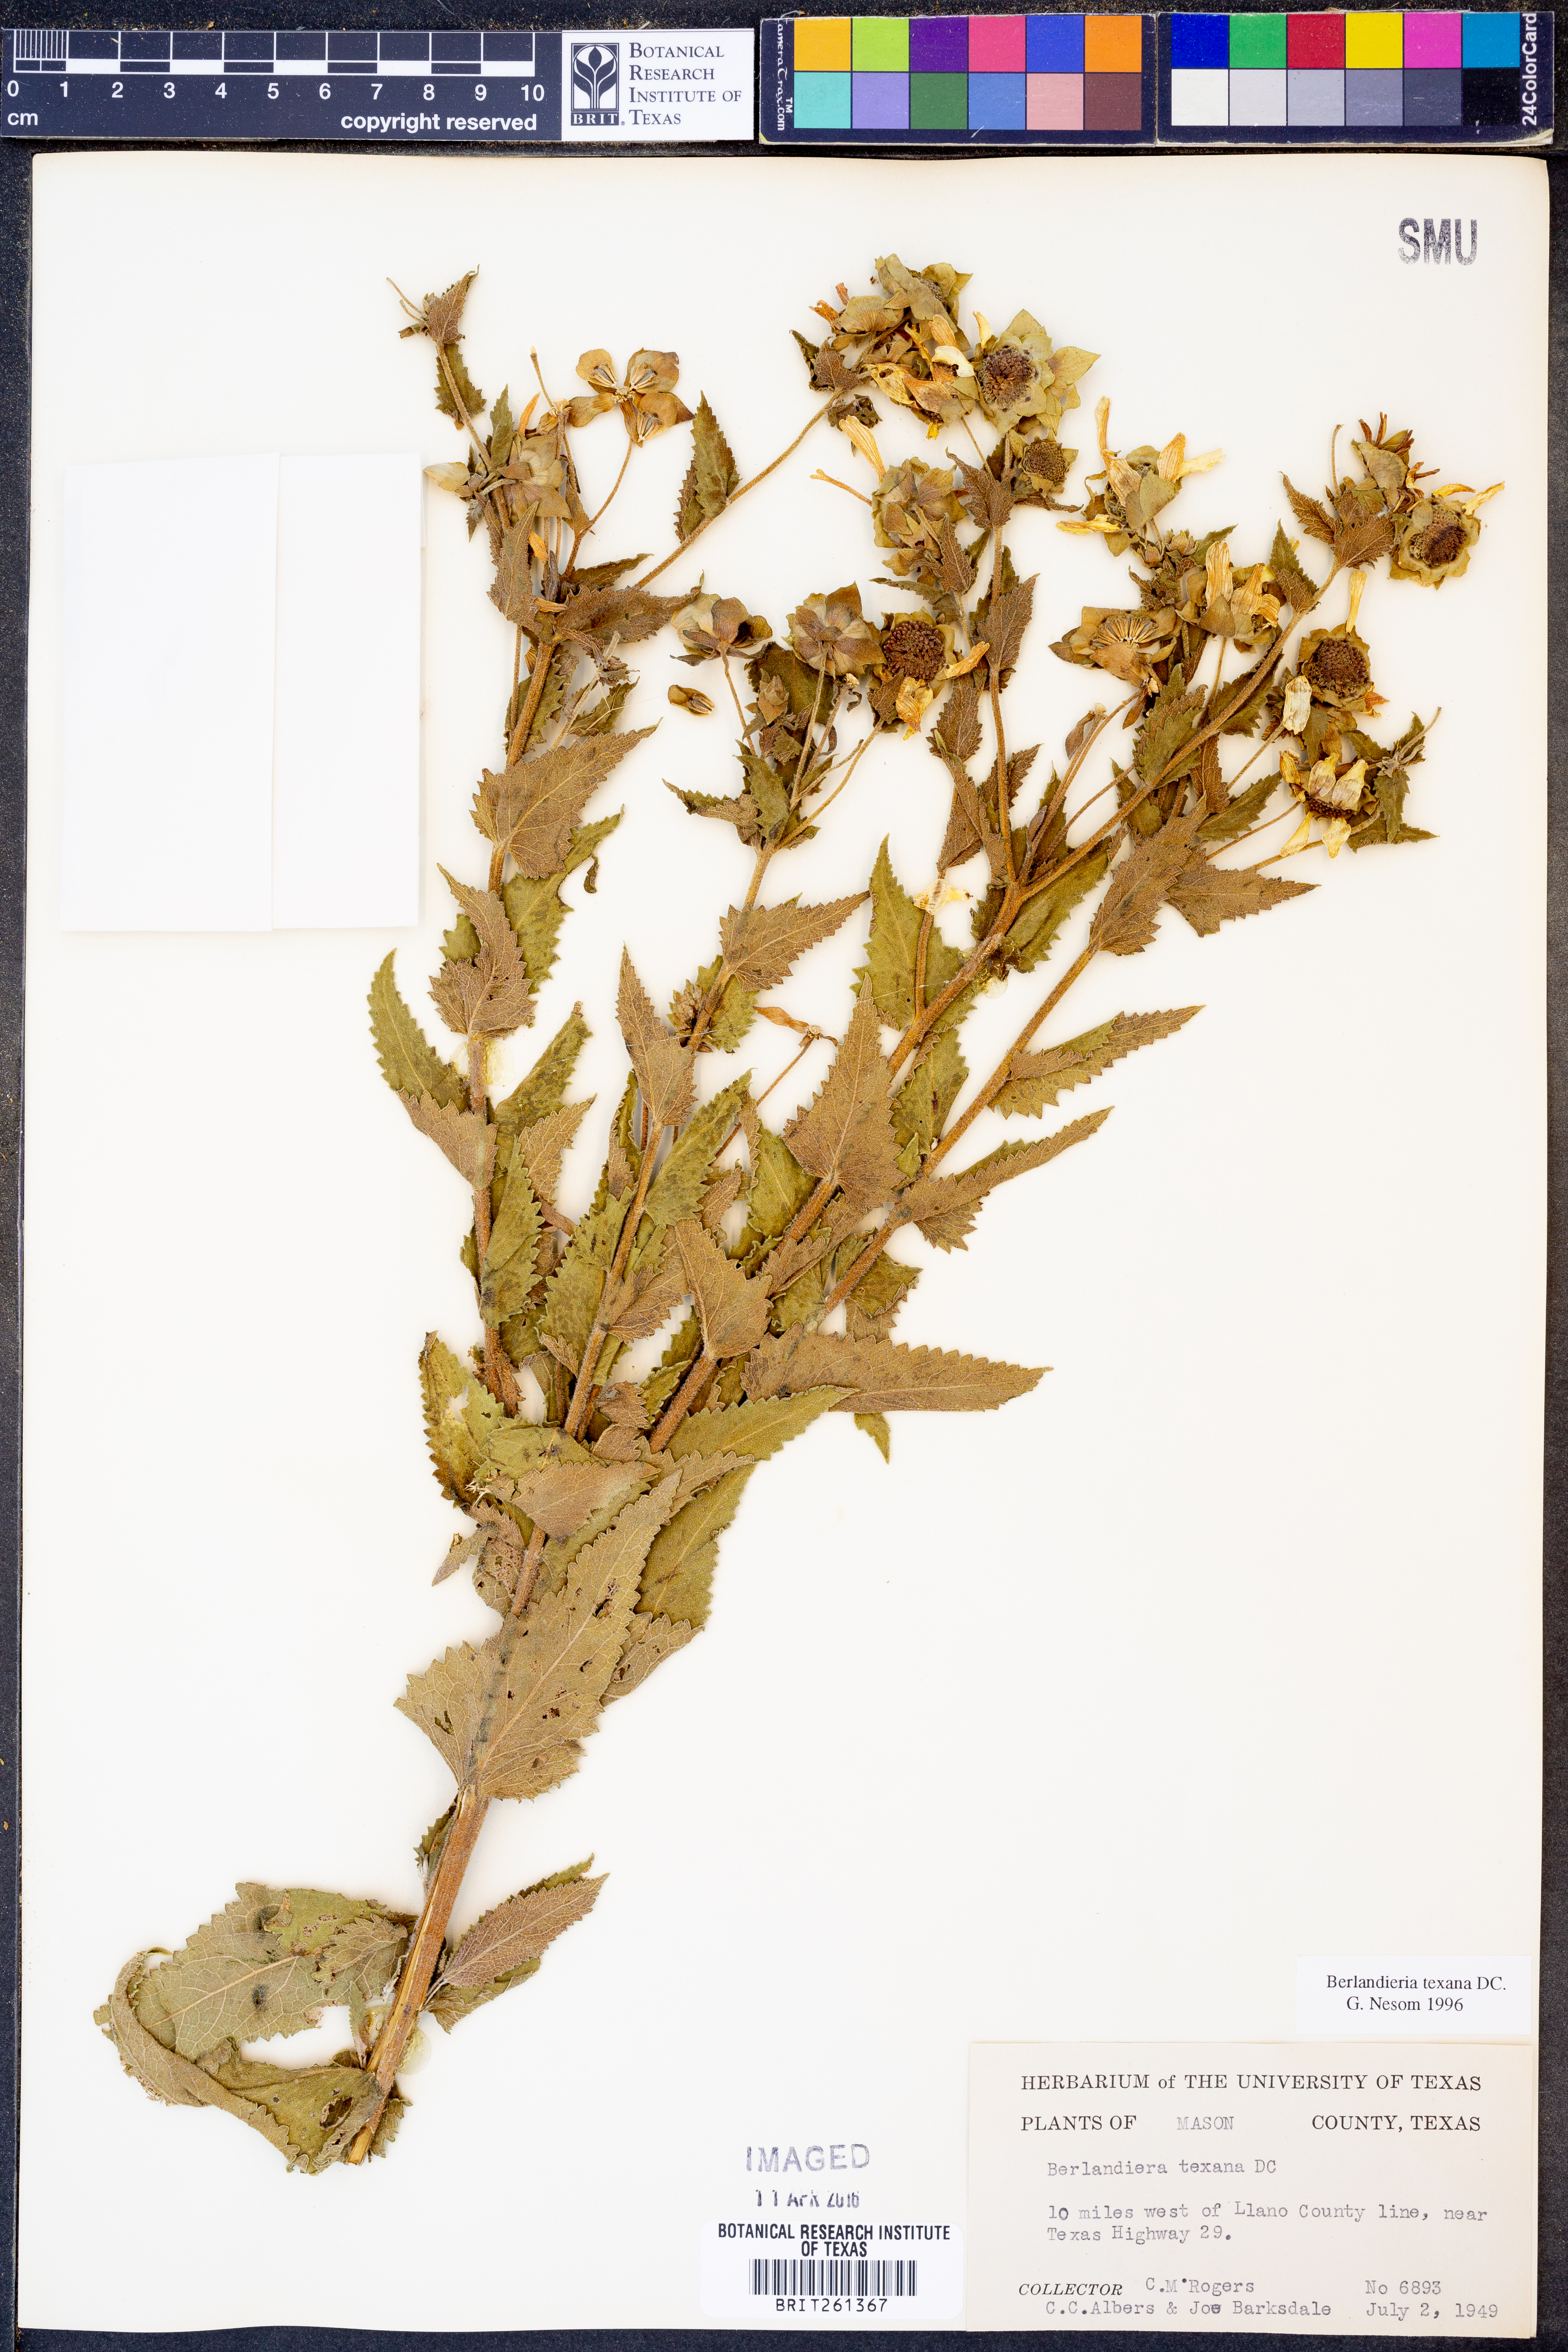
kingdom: Plantae
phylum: Tracheophyta
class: Magnoliopsida
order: Asterales
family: Asteraceae
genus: Berlandiera
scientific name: Berlandiera texana
